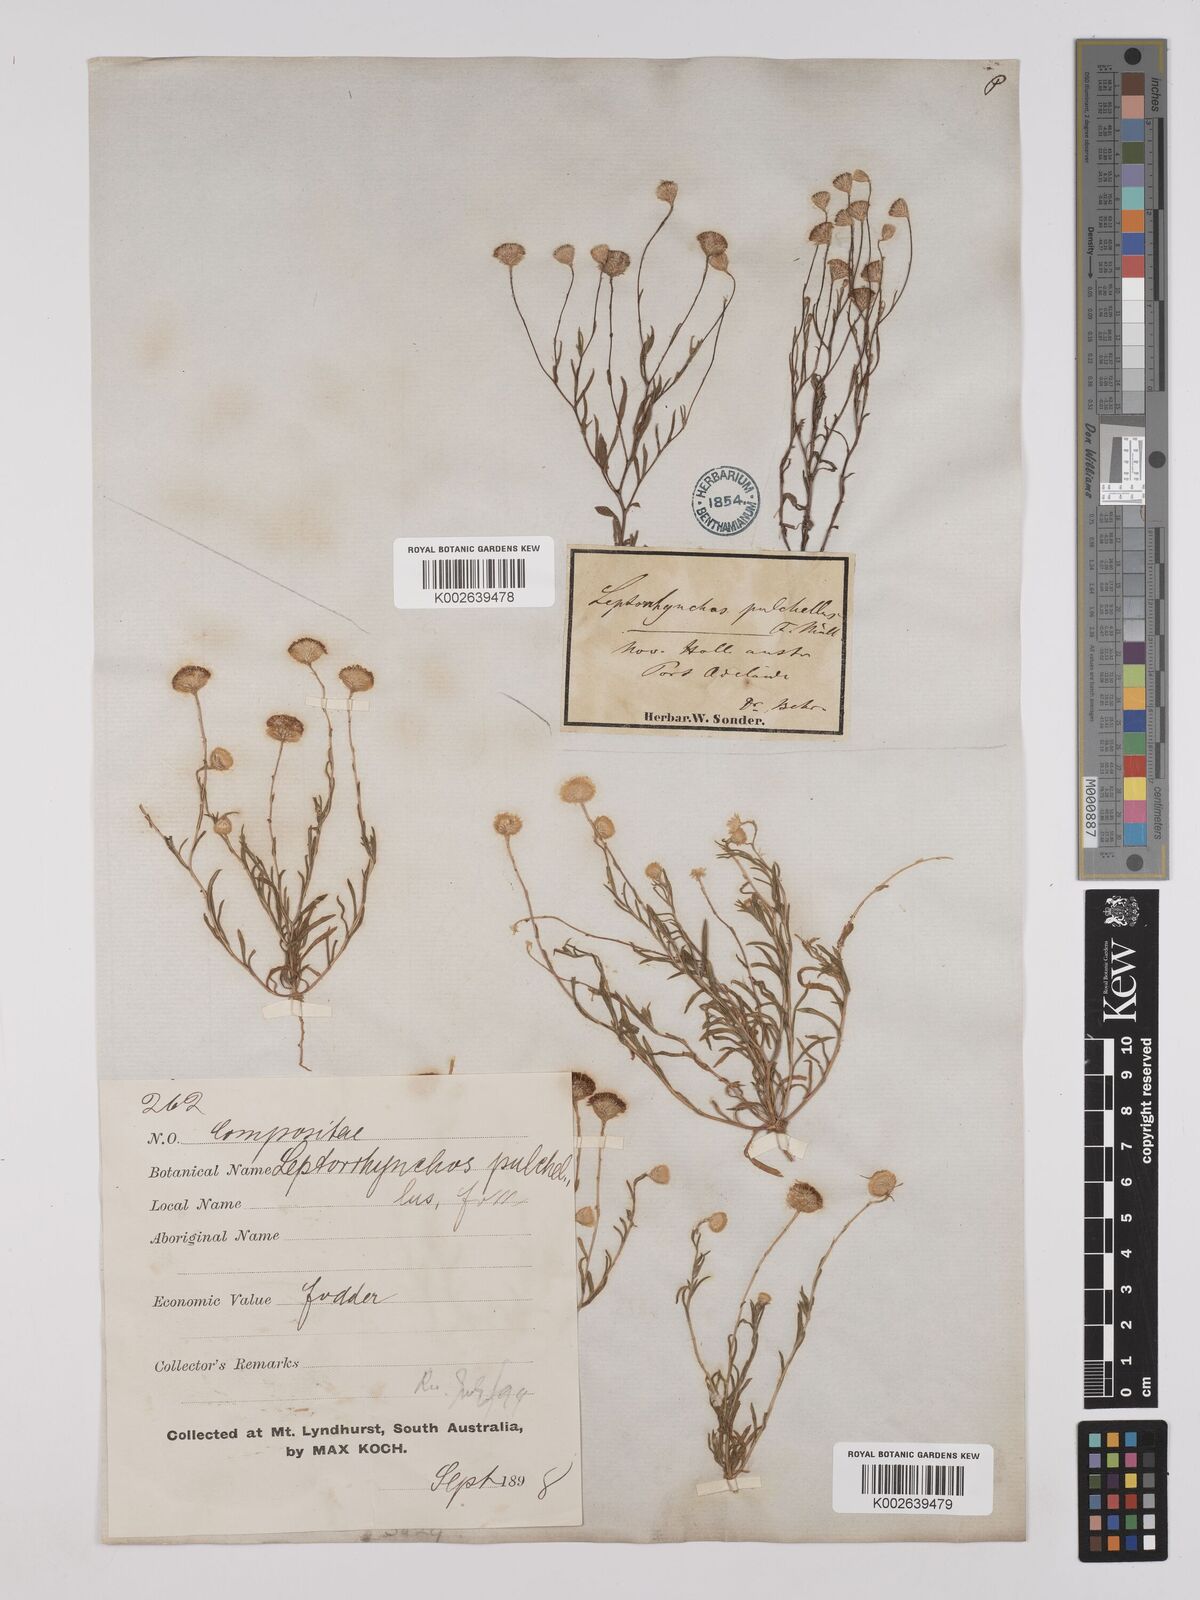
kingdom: Plantae
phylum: Tracheophyta
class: Magnoliopsida
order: Asterales
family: Asteraceae
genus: Leptorhynchos
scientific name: Leptorhynchos tetrachaetus
